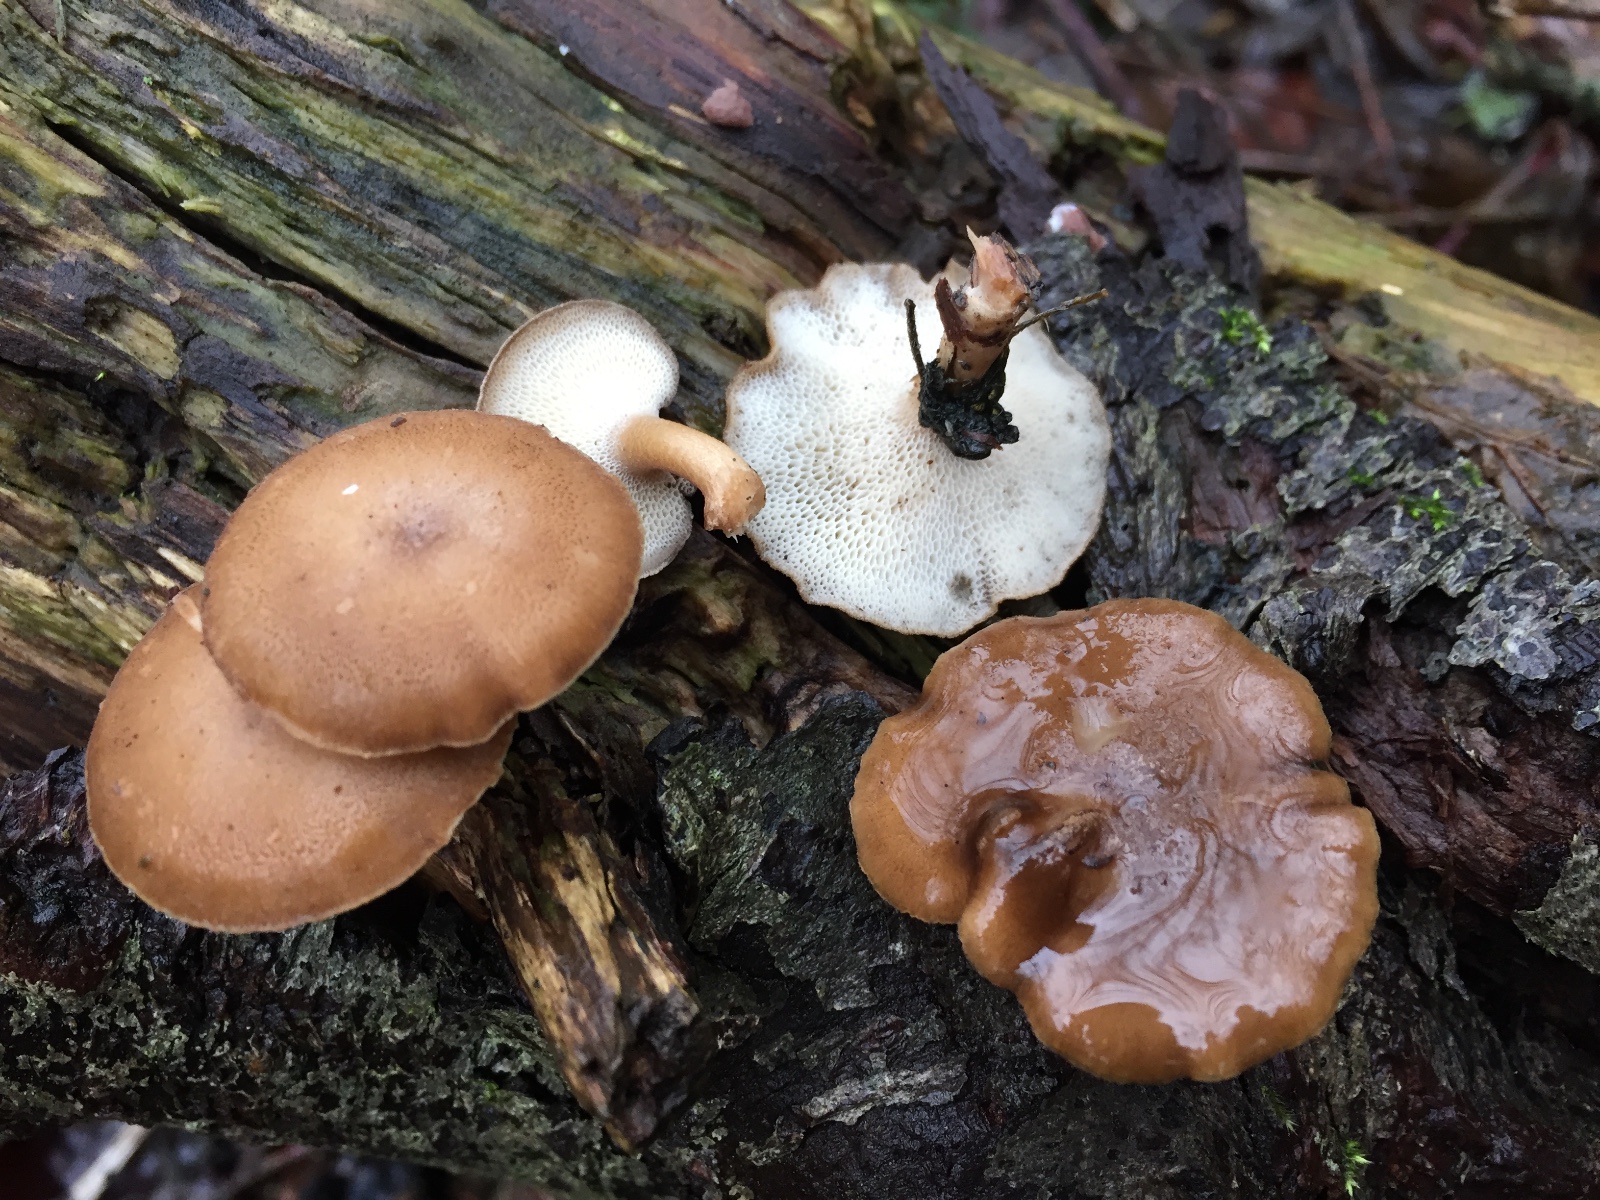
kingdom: Fungi
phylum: Basidiomycota
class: Agaricomycetes
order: Polyporales
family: Polyporaceae
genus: Lentinus
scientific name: Lentinus brumalis
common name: vinter-stilkporesvamp
